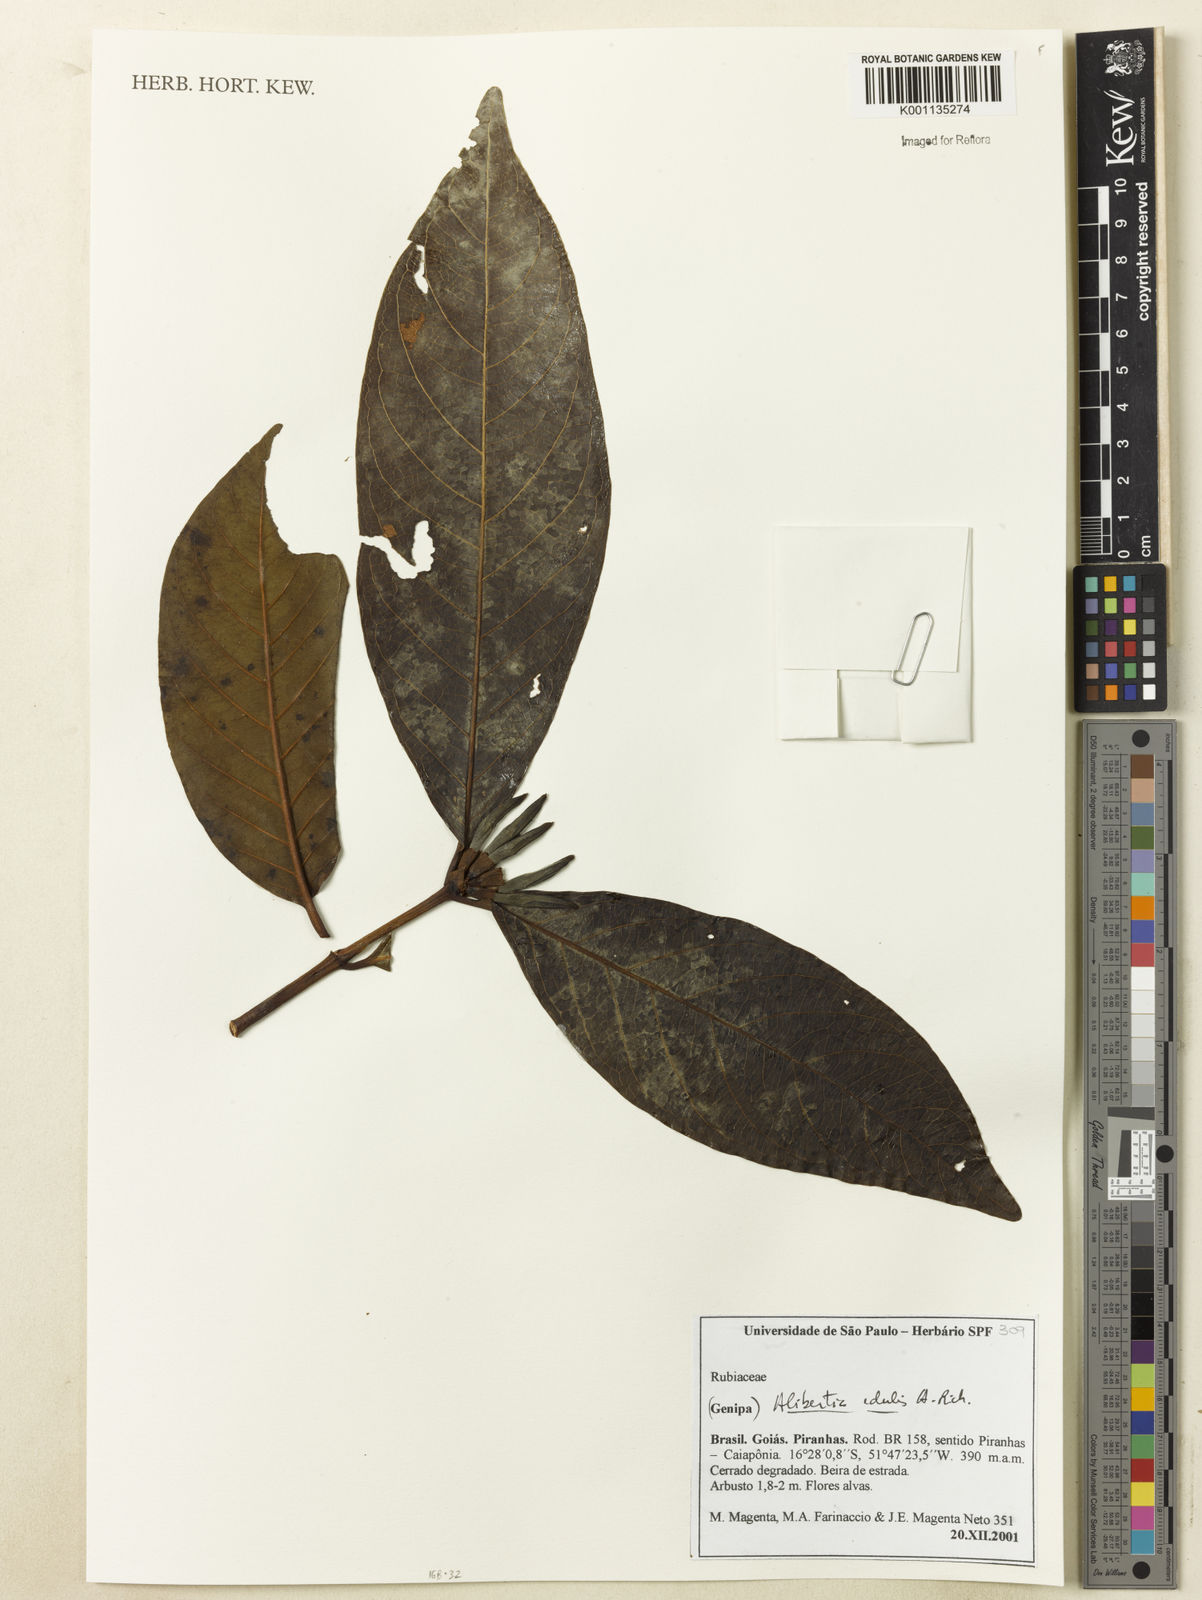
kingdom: Plantae
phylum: Tracheophyta
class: Magnoliopsida
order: Gentianales
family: Rubiaceae
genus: Alibertia
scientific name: Alibertia edulis
